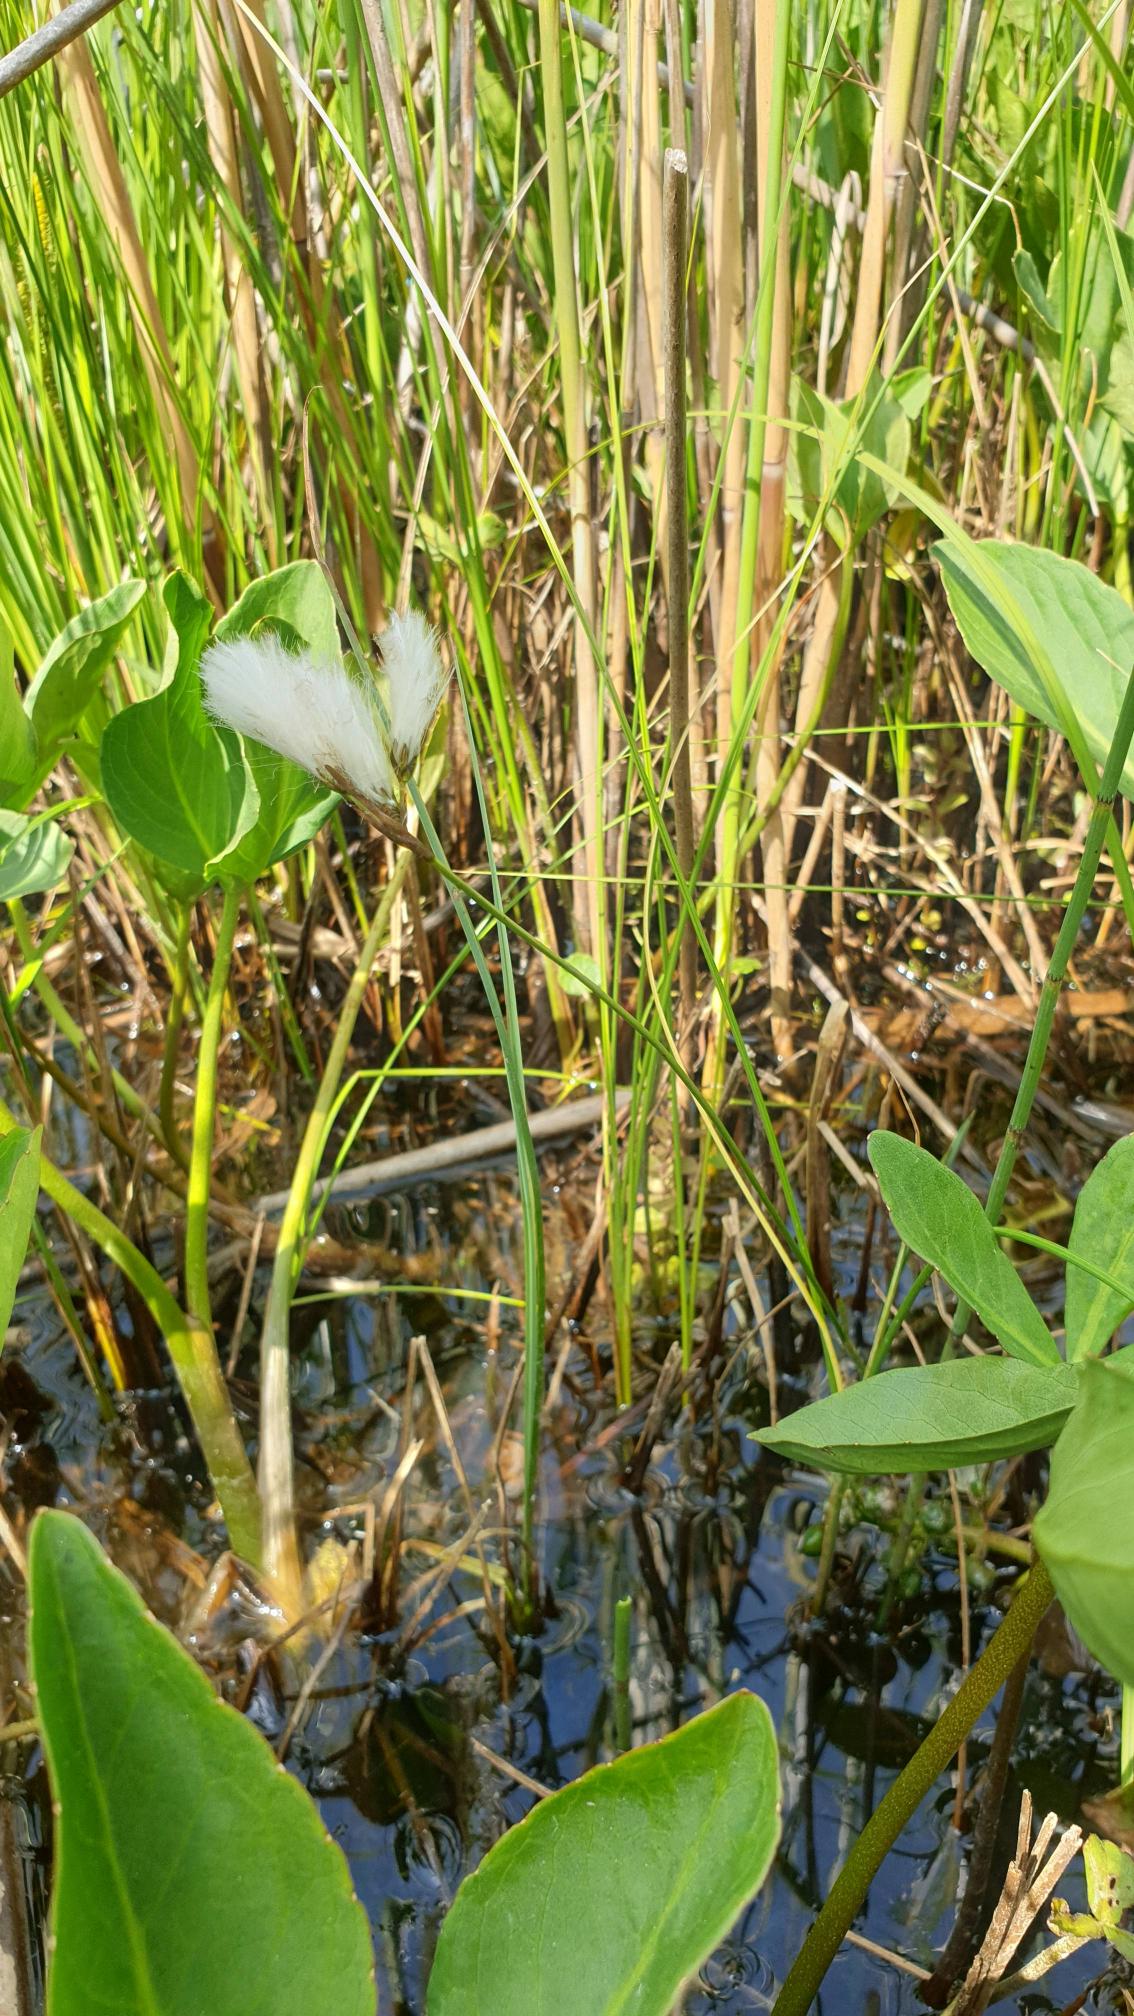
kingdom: Plantae
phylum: Tracheophyta
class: Liliopsida
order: Poales
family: Cyperaceae
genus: Eriophorum
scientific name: Eriophorum gracile
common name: Fin kæruld
